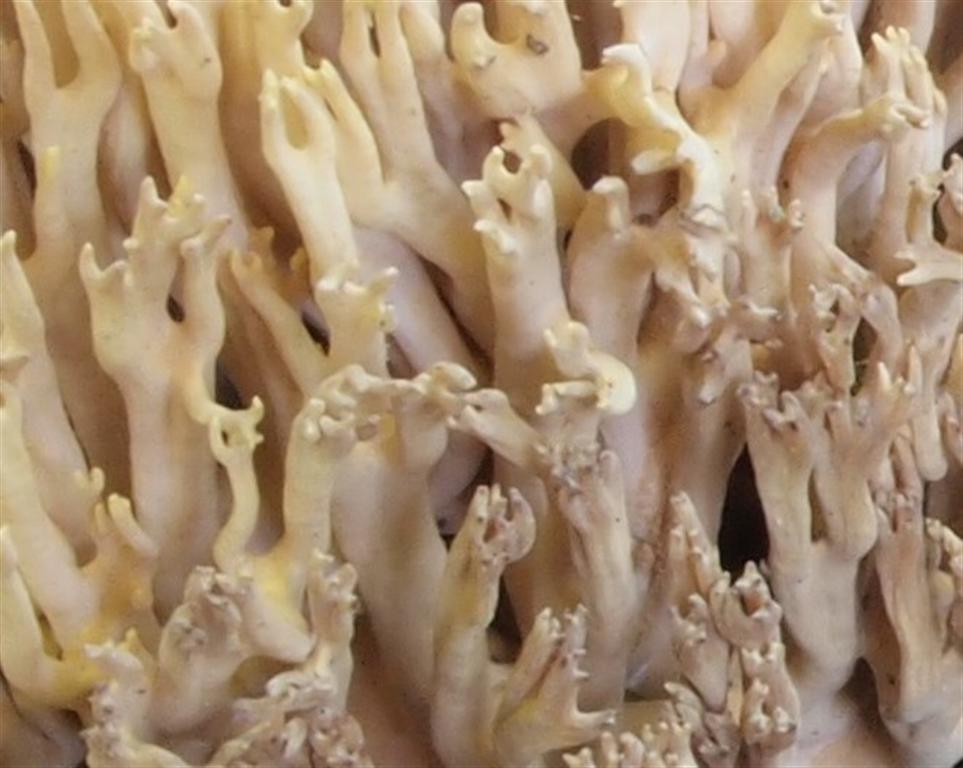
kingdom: Fungi
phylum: Basidiomycota
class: Agaricomycetes
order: Gomphales
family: Gomphaceae
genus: Ramaria
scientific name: Ramaria stricta
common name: rank koralsvamp
